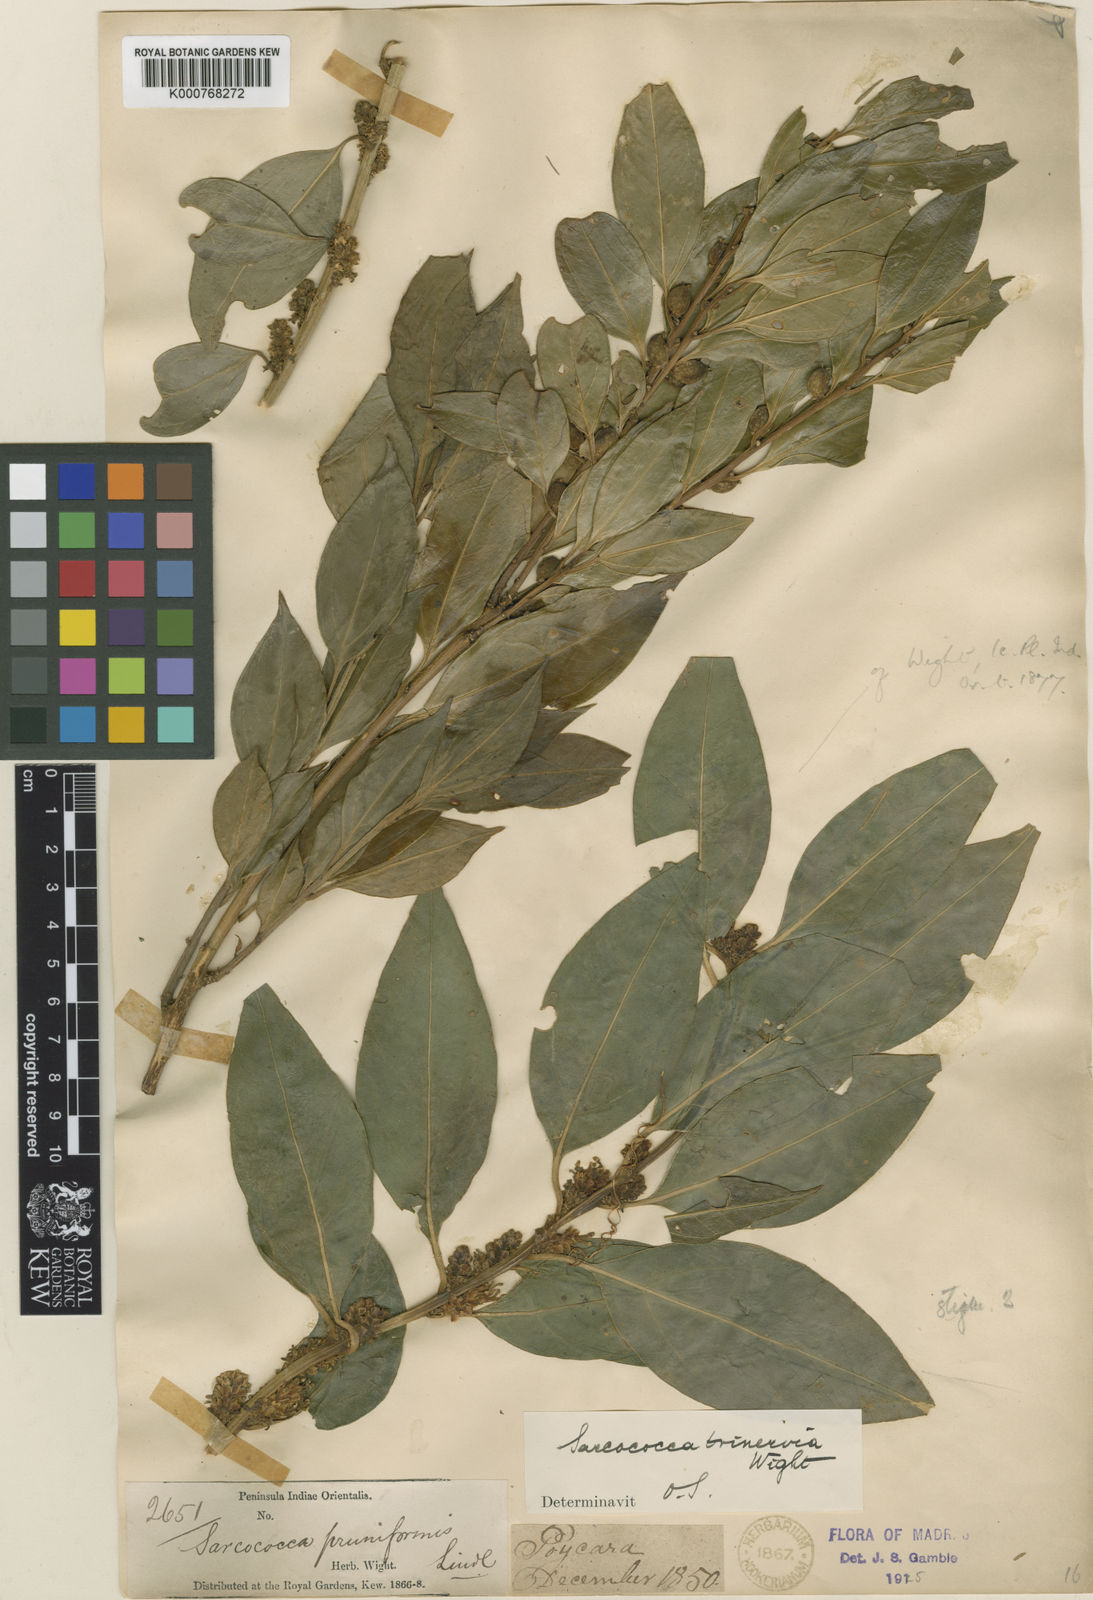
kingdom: Plantae
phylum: Tracheophyta
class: Magnoliopsida
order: Buxales
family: Buxaceae
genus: Sarcococca
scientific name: Sarcococca coriacea
